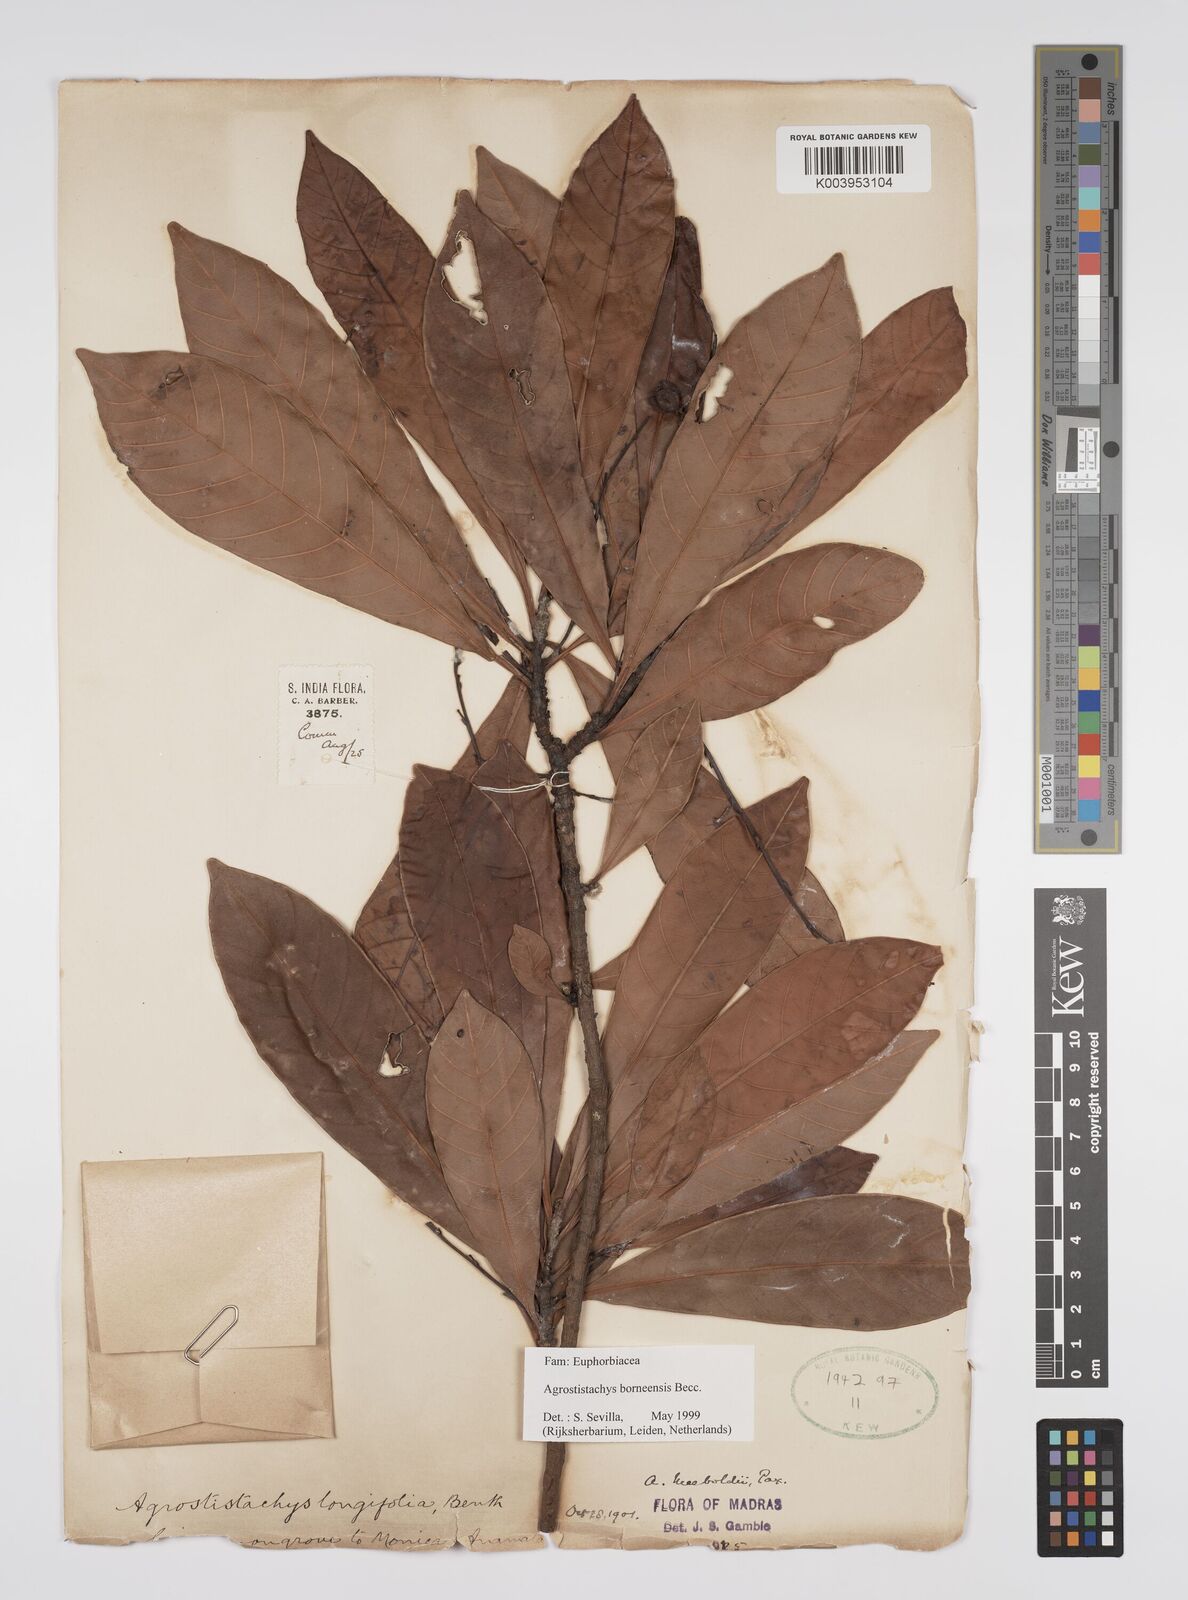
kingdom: Plantae
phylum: Tracheophyta
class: Magnoliopsida
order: Malpighiales
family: Euphorbiaceae
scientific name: Euphorbiaceae
